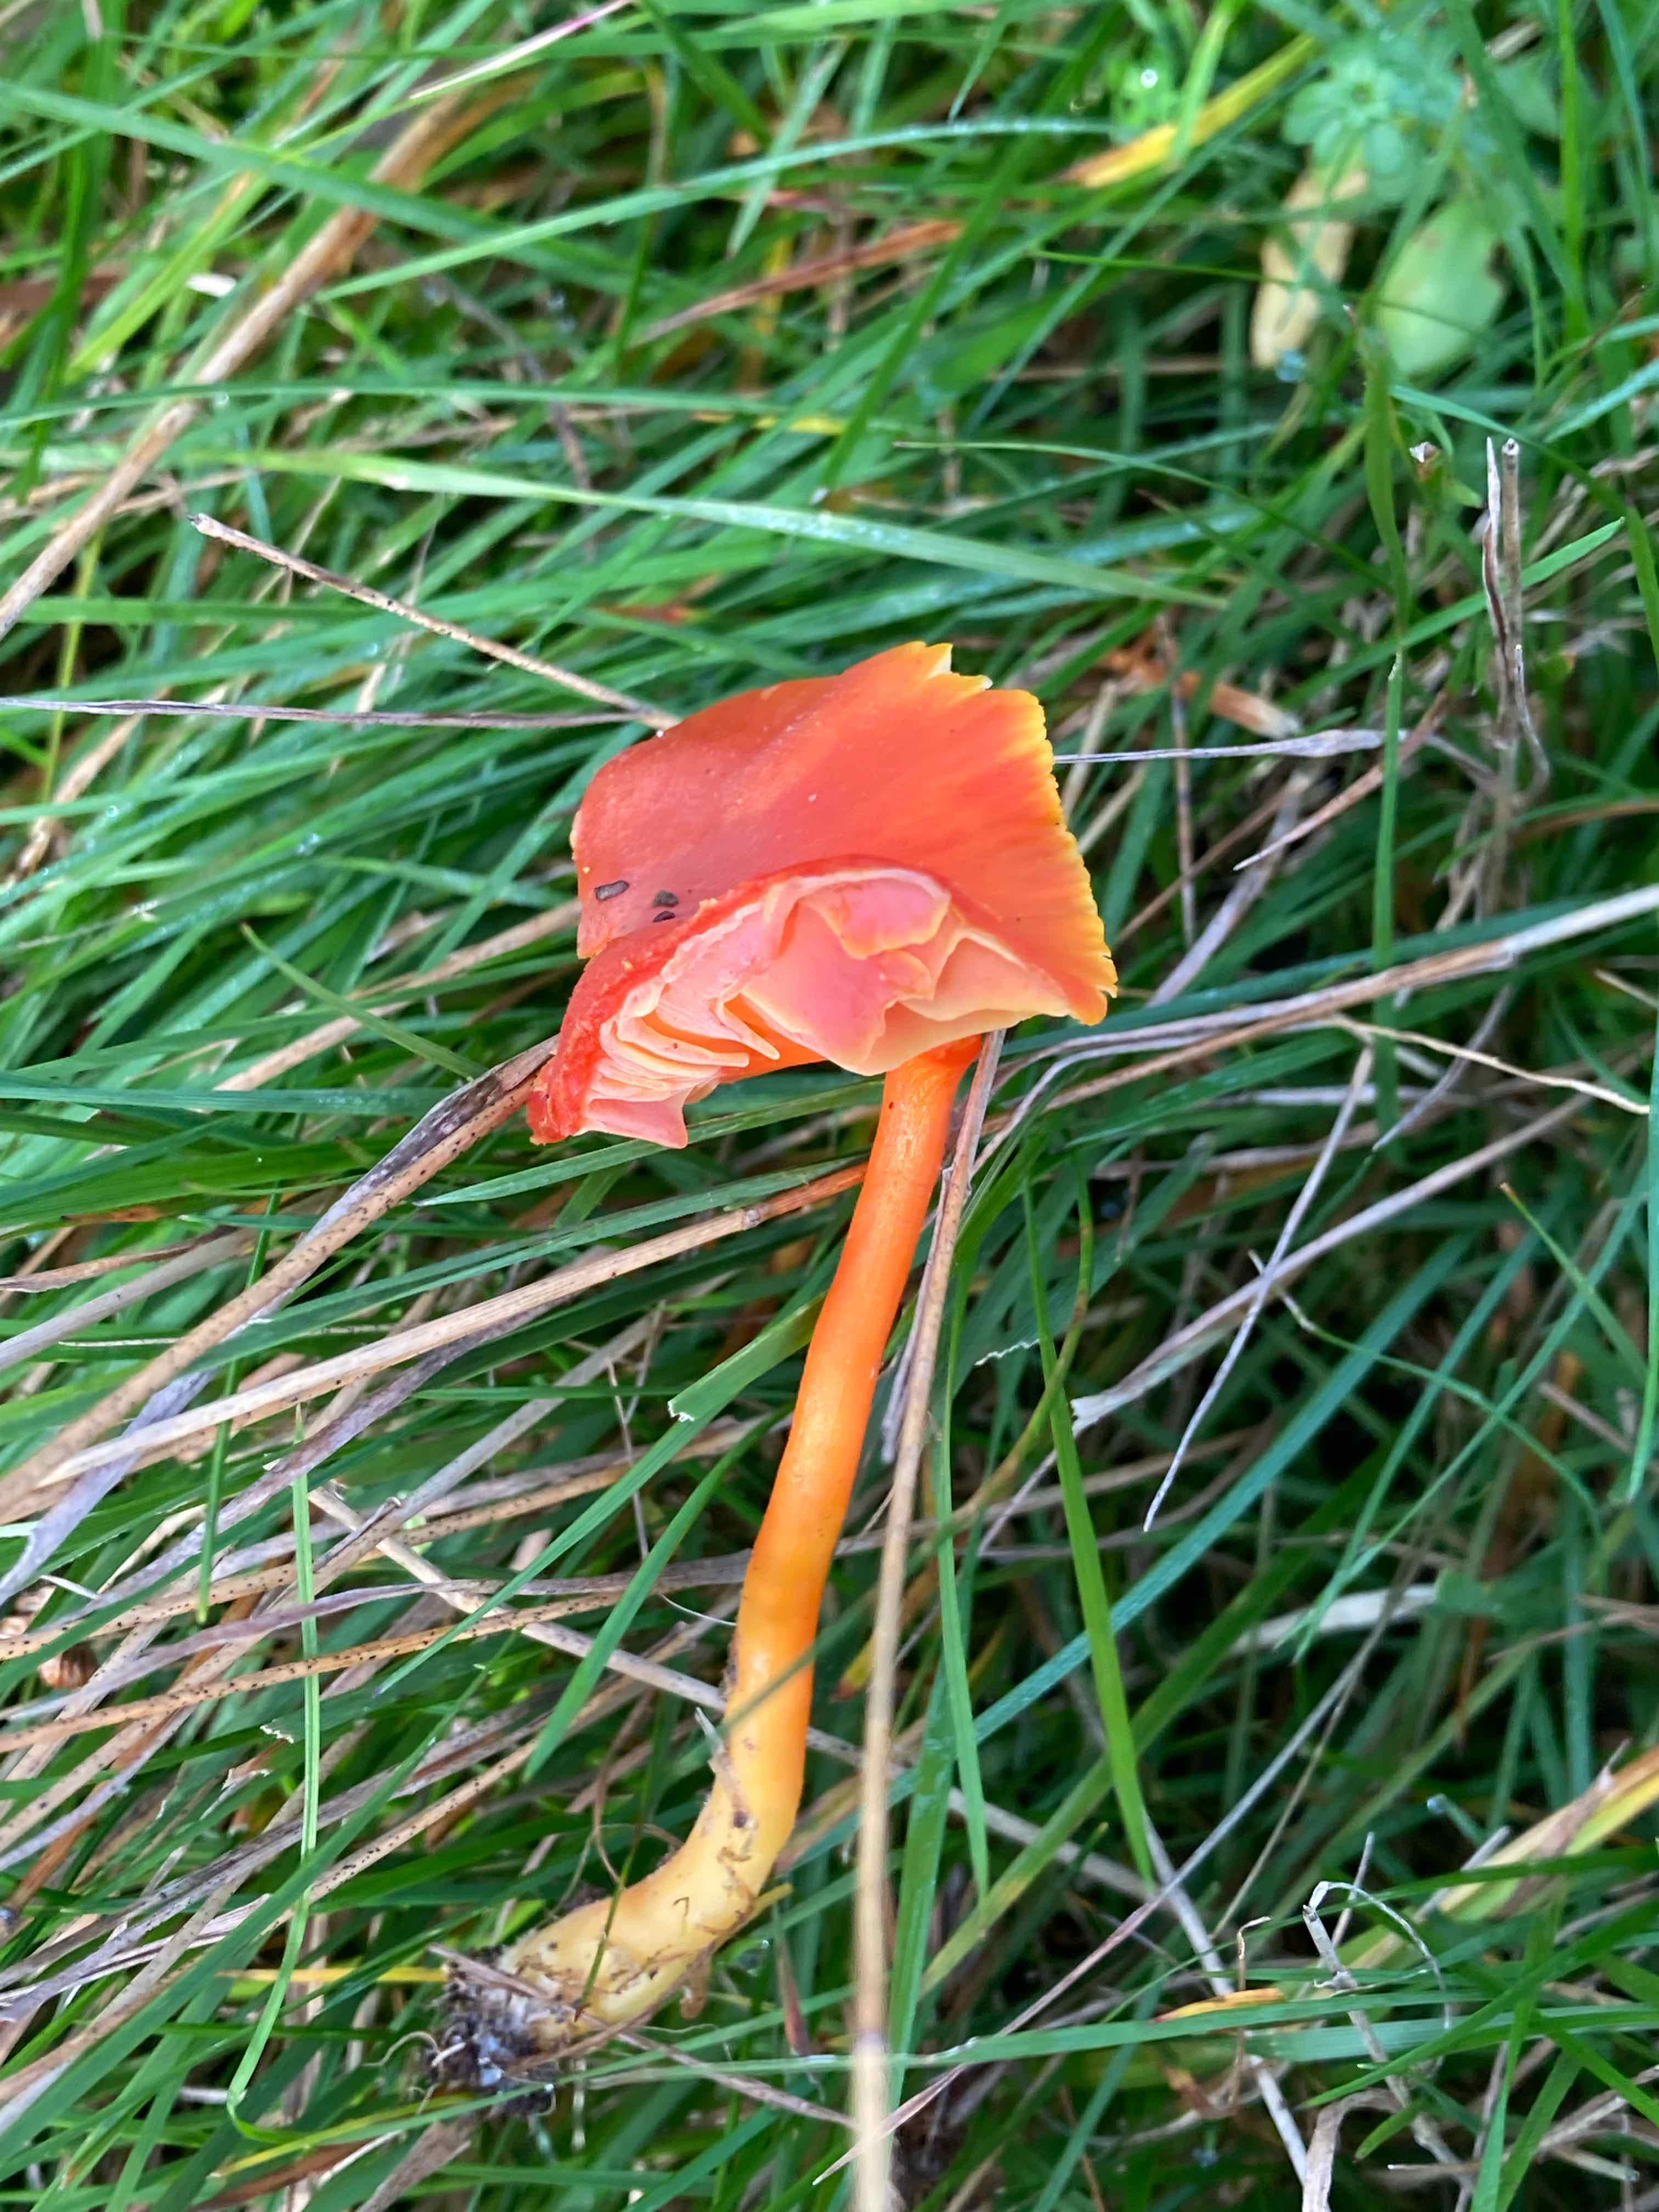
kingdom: Fungi
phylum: Basidiomycota
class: Agaricomycetes
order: Agaricales
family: Hygrophoraceae
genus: Hygrocybe
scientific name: Hygrocybe miniata
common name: mønje-vokshat
